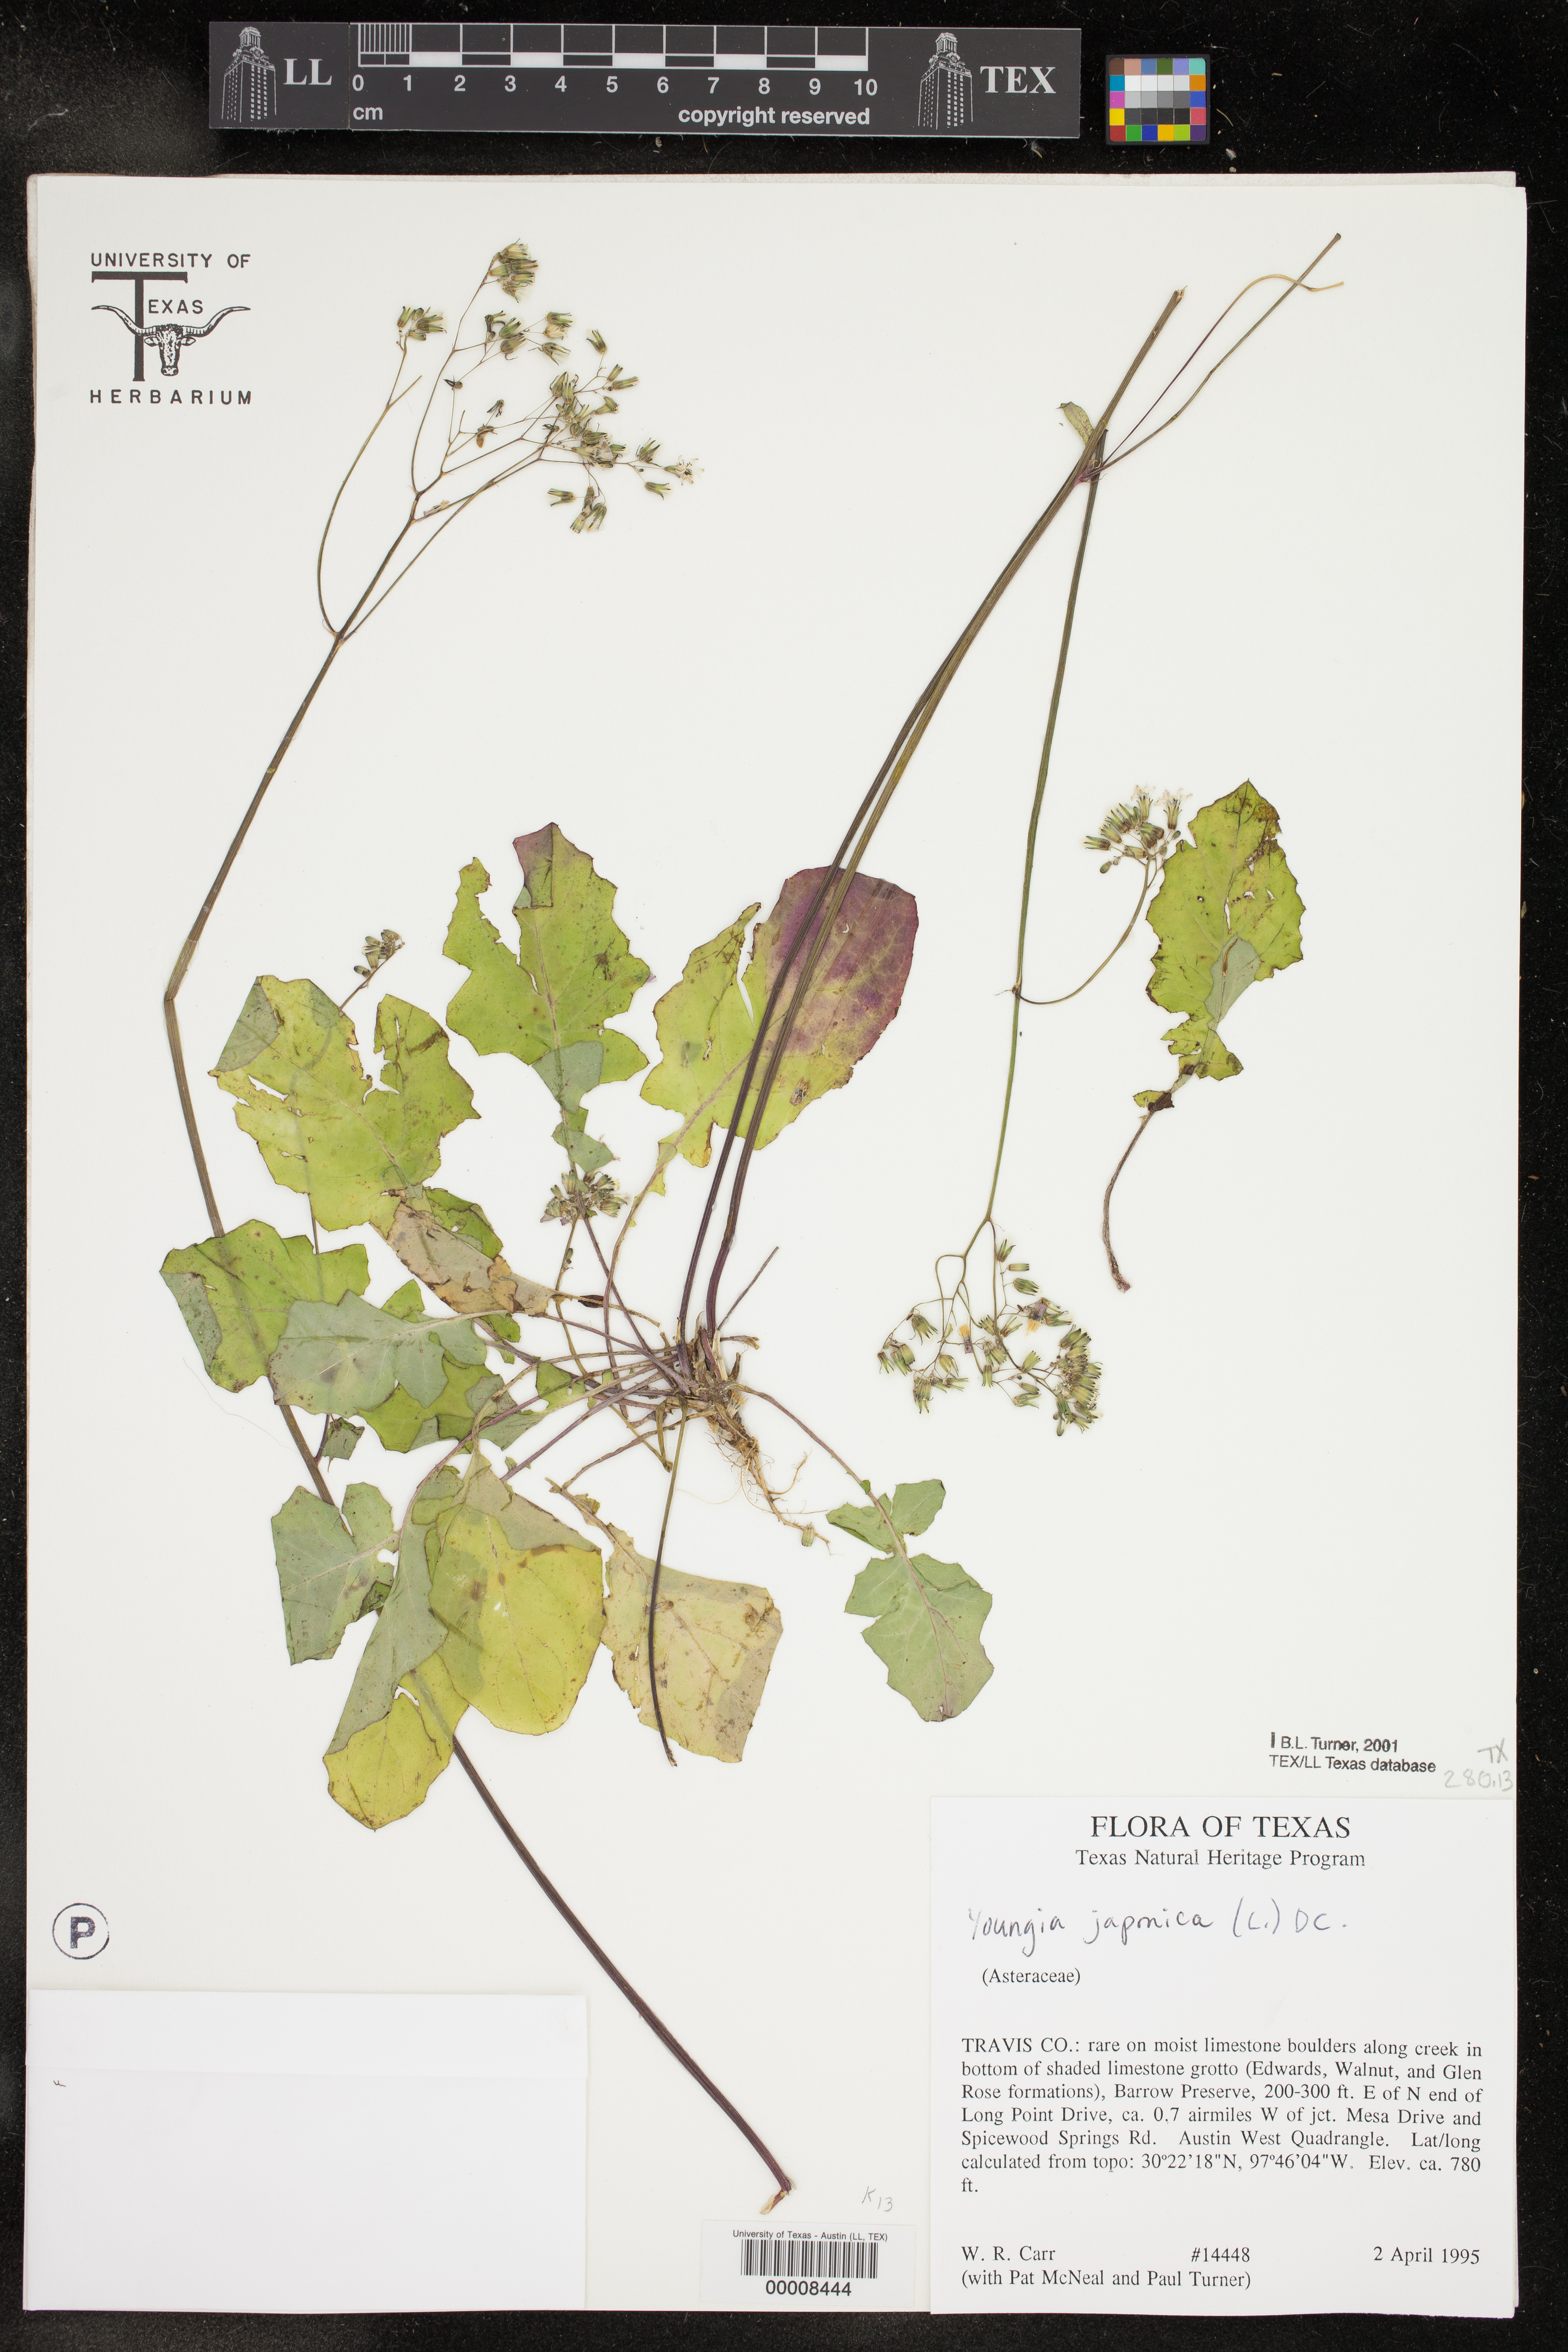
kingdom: Plantae
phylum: Tracheophyta
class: Magnoliopsida
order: Asterales
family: Asteraceae
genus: Youngia
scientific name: Youngia japonica
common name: Oriental false hawksbeard
